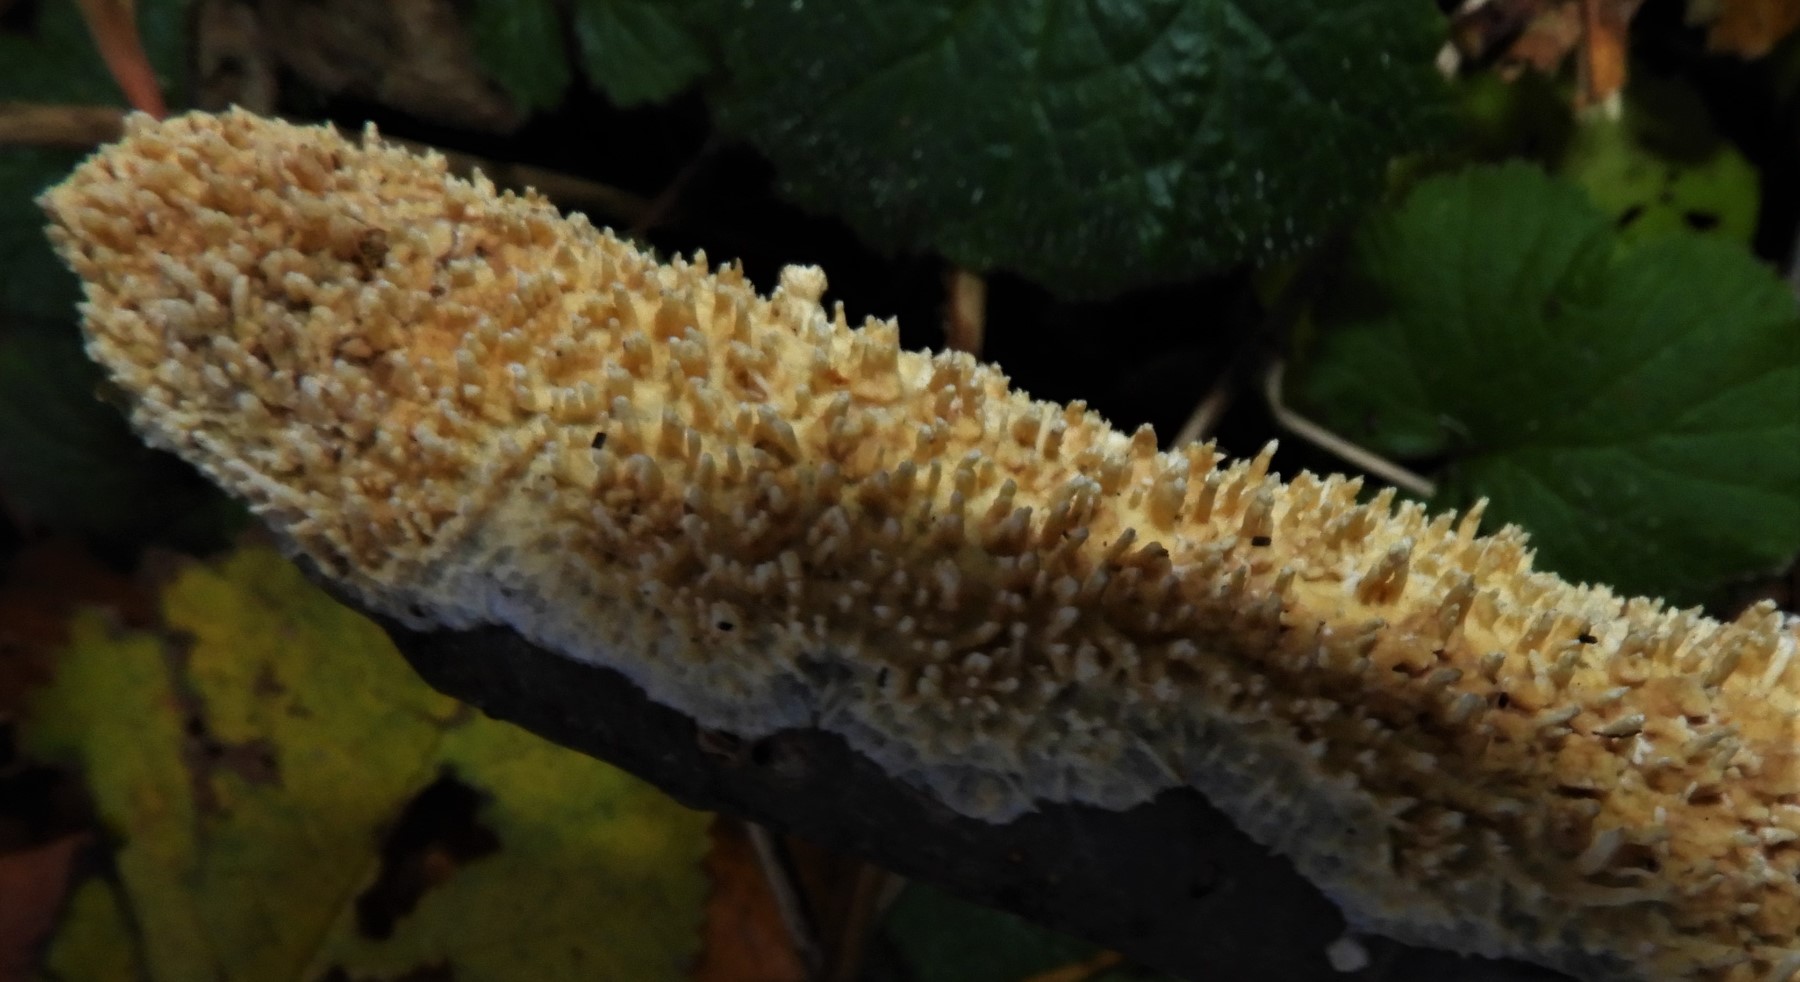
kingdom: Fungi
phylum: Basidiomycota
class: Agaricomycetes
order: Hymenochaetales
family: Schizoporaceae
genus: Xylodon
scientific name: Xylodon radula
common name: grovtandet kalkskind
